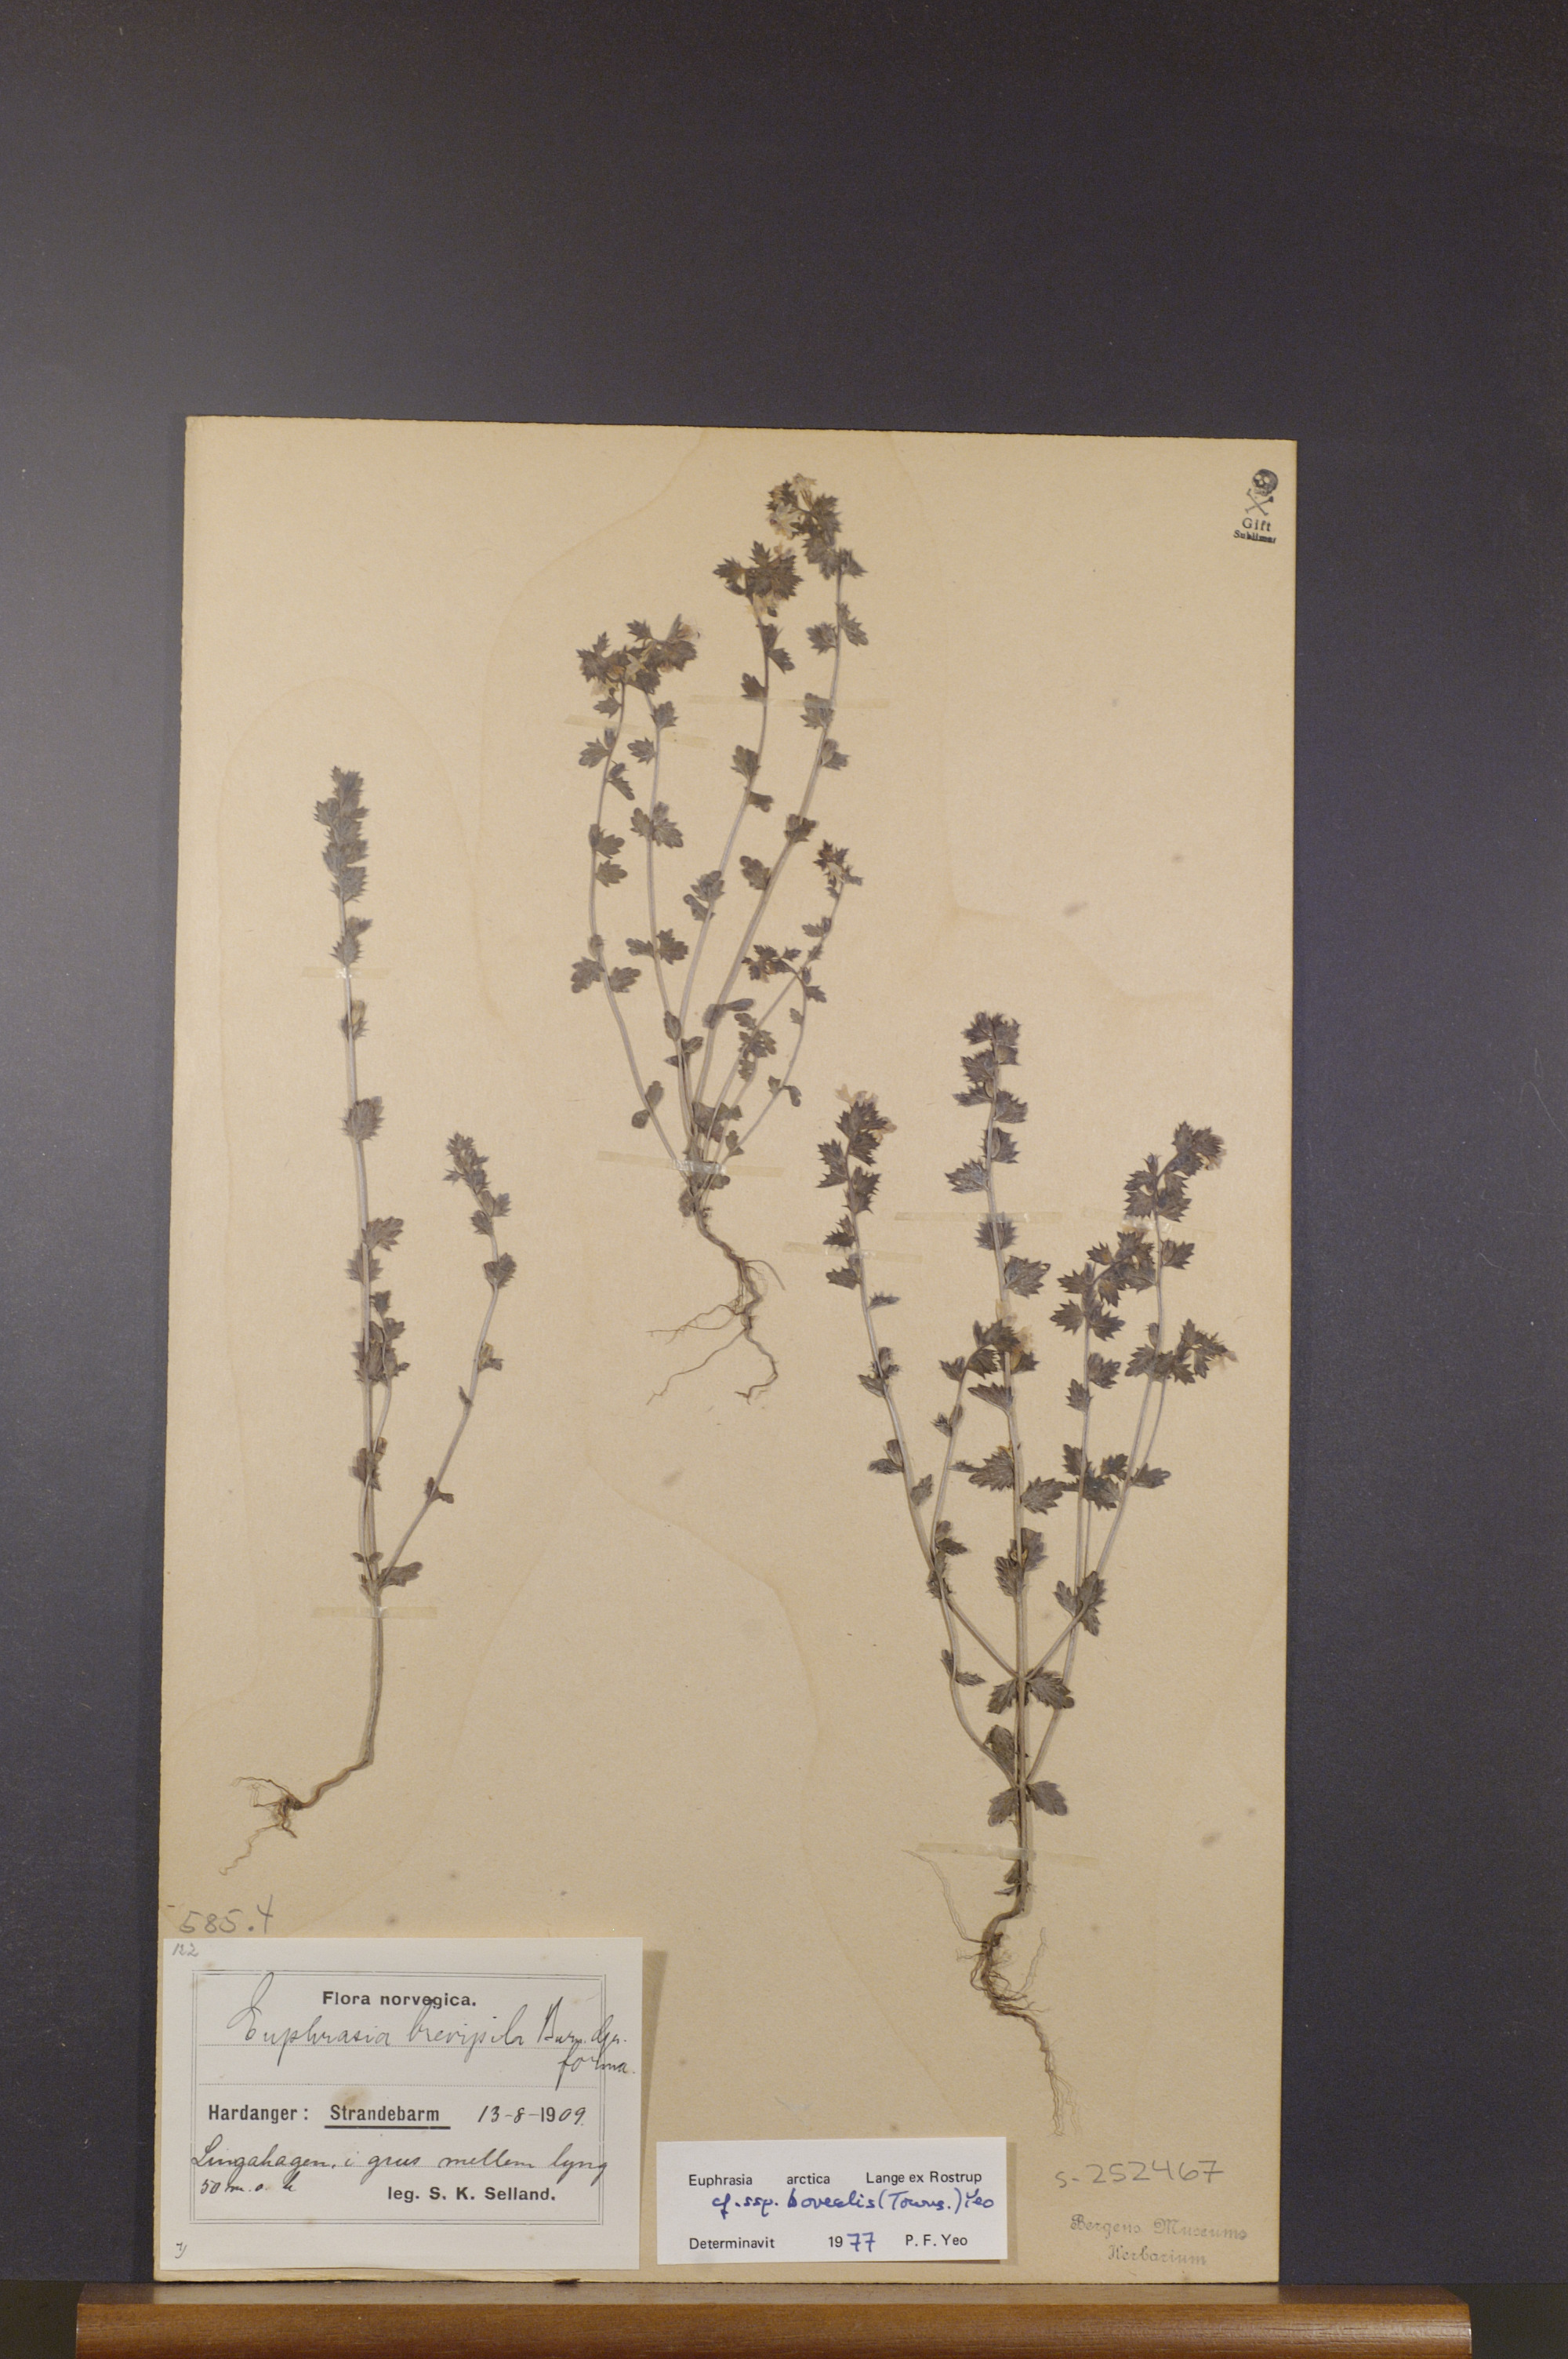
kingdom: Plantae
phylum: Tracheophyta
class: Magnoliopsida
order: Lamiales
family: Orobanchaceae
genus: Euphrasia
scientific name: Euphrasia arctica
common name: An eyebright
